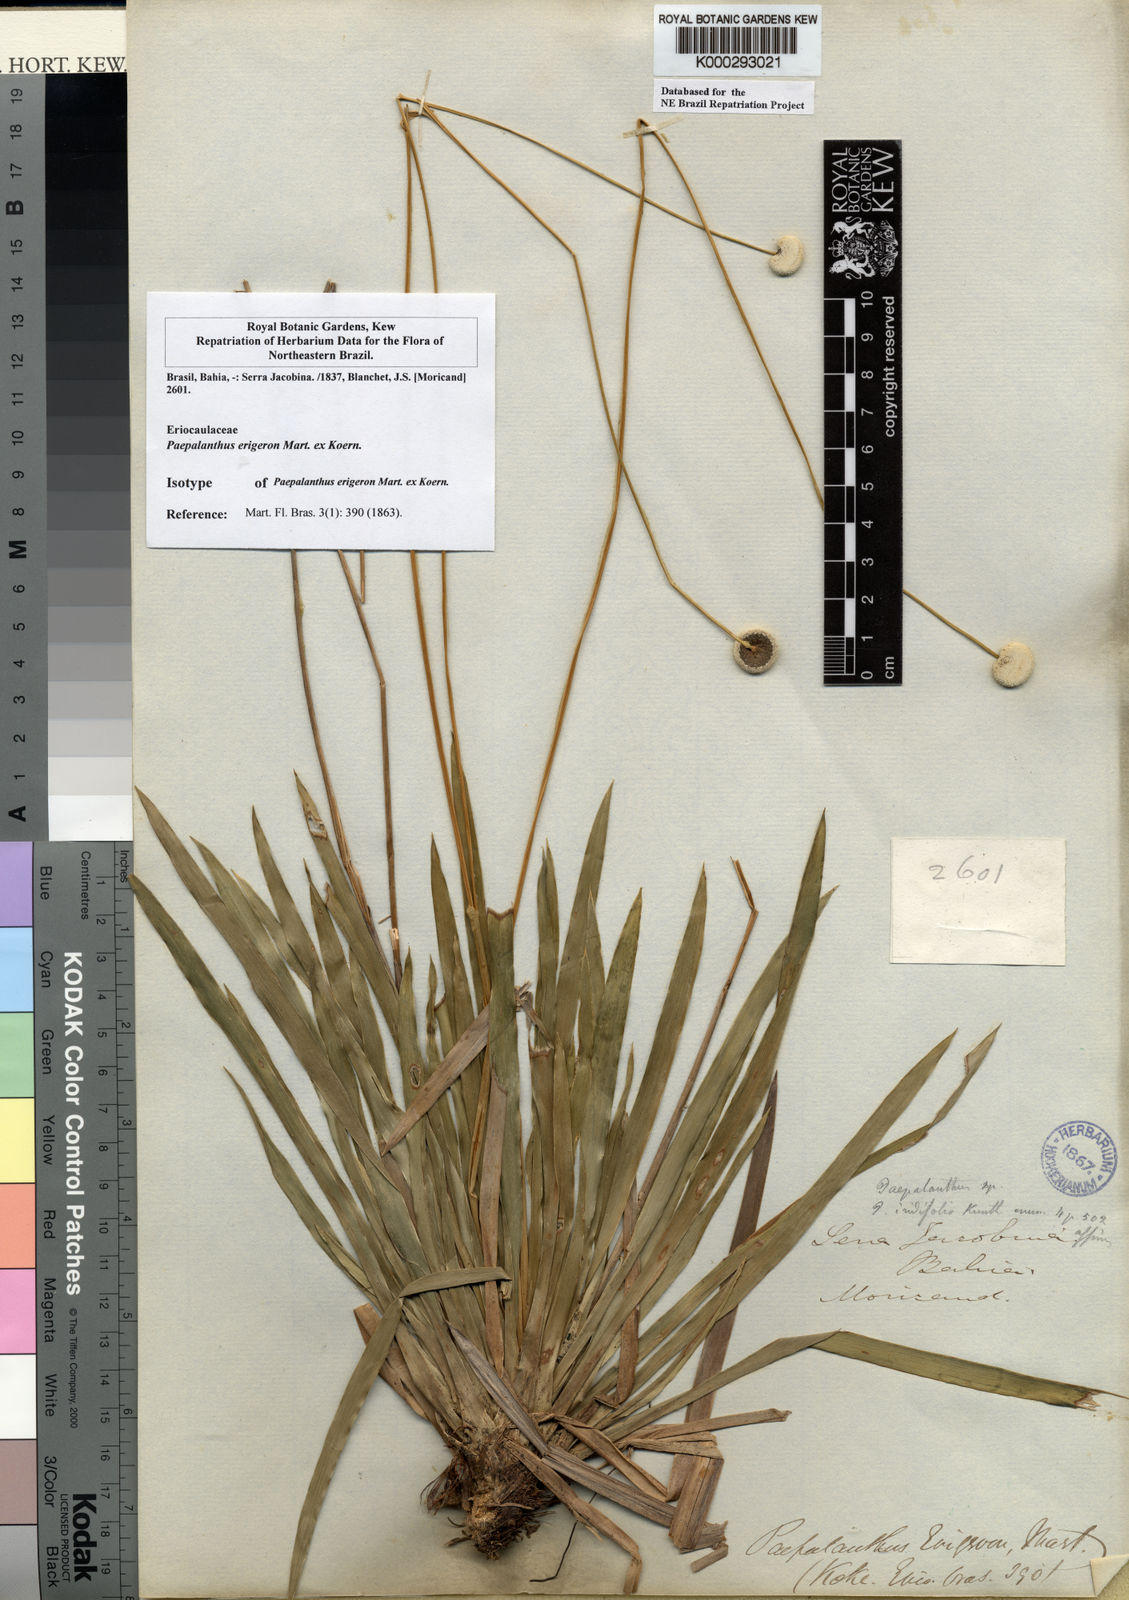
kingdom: Plantae
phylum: Tracheophyta
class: Liliopsida
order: Poales
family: Eriocaulaceae
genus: Paepalanthus
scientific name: Paepalanthus
